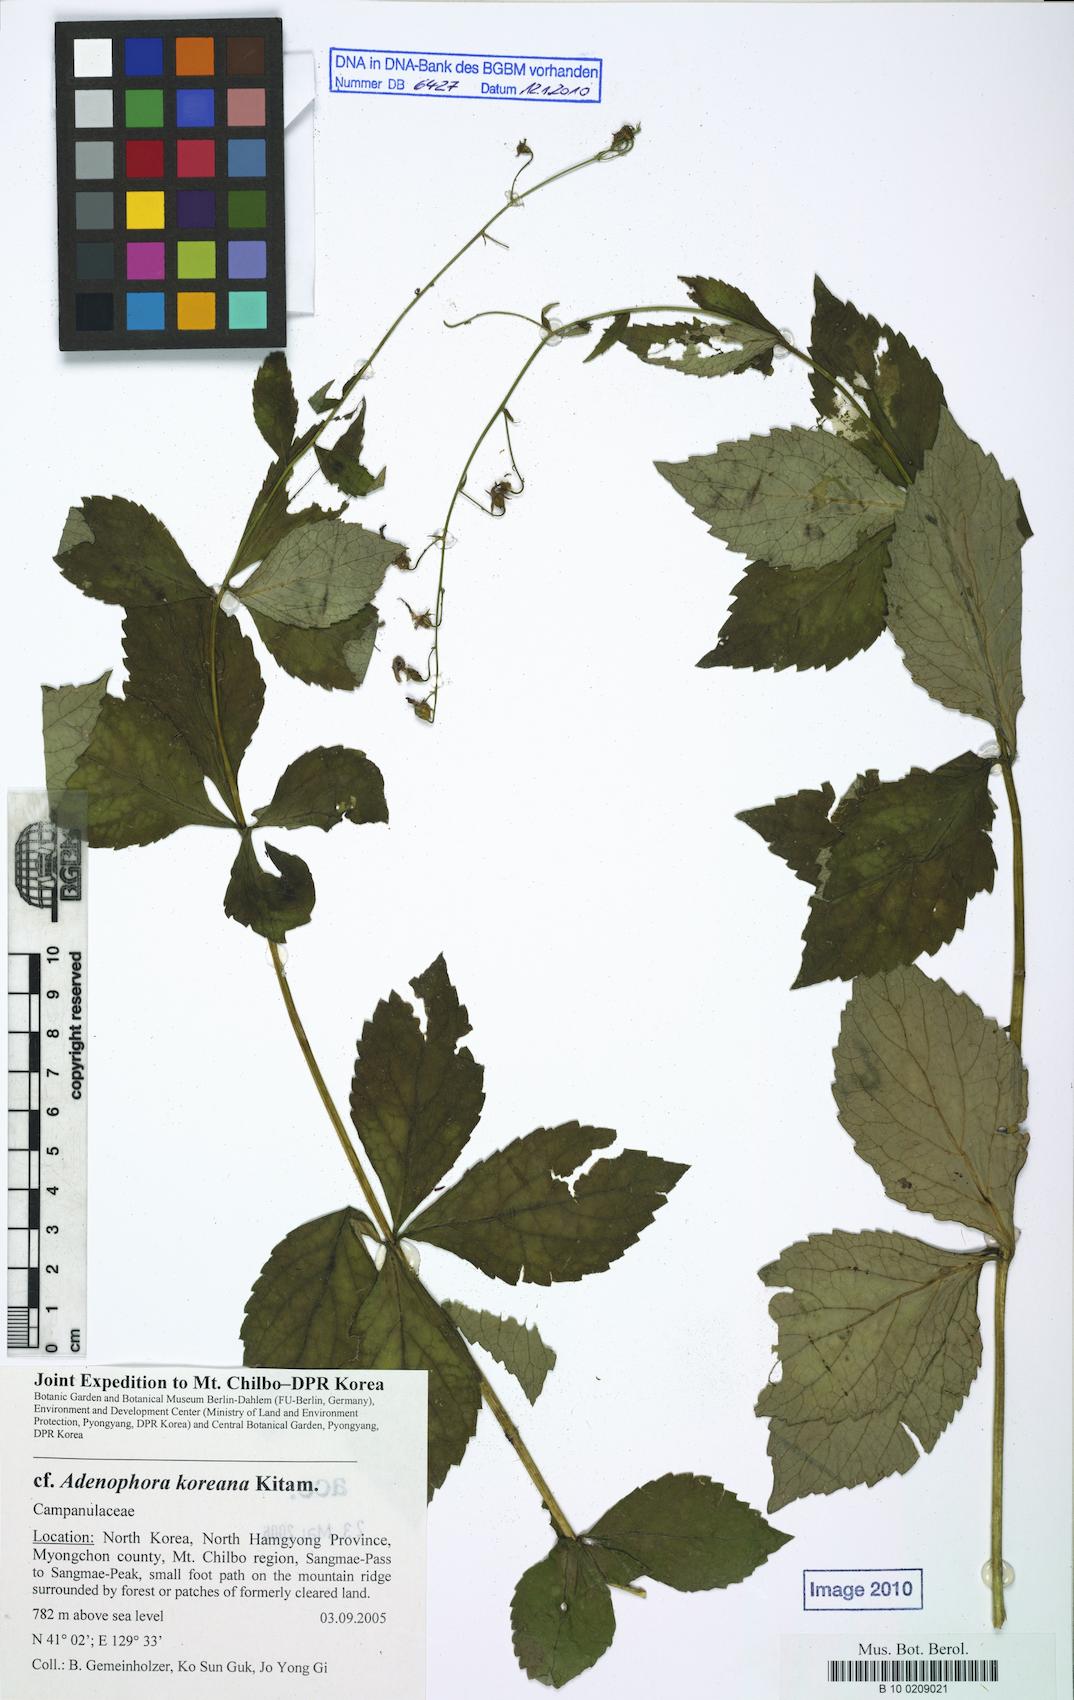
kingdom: Plantae
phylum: Tracheophyta
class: Magnoliopsida
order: Asterales
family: Campanulaceae
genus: Adenophora
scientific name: Adenophora divaricata
